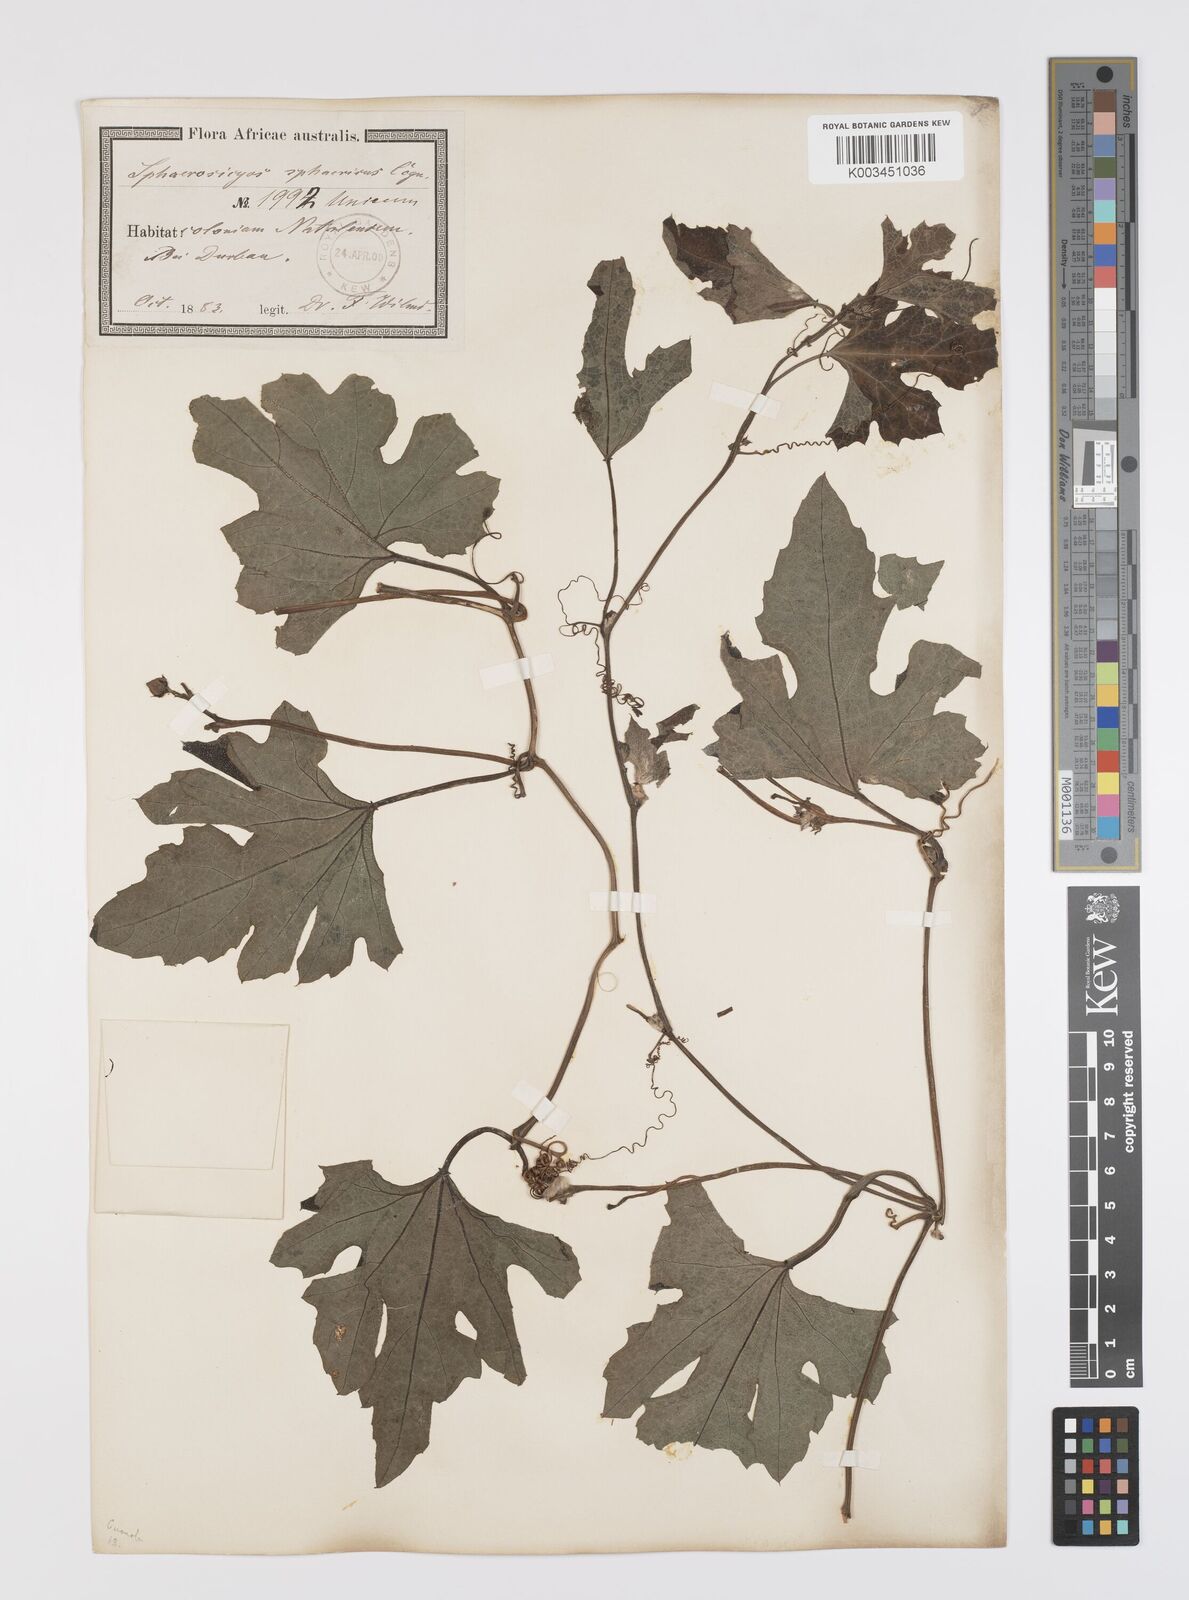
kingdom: Plantae
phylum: Tracheophyta
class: Magnoliopsida
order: Cucurbitales
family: Cucurbitaceae
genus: Lagenaria
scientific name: Lagenaria sphaerica
